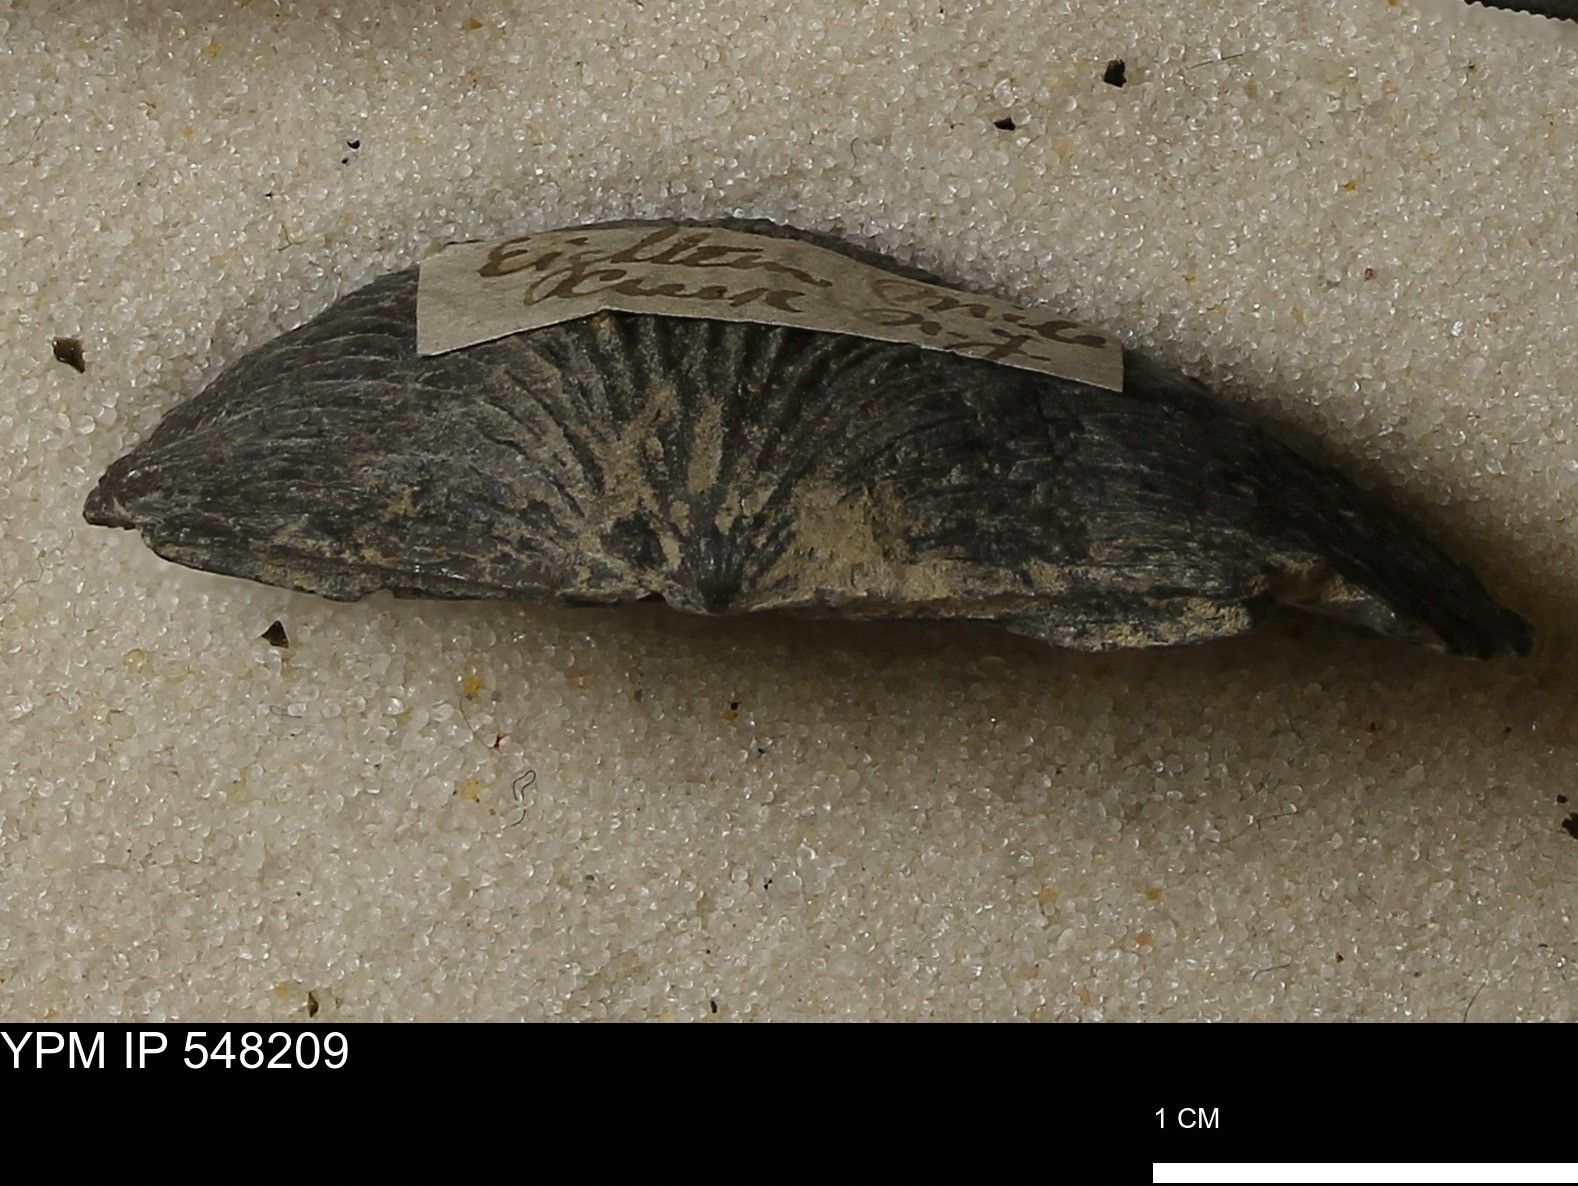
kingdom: Animalia
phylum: Brachiopoda
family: Stropheodontidae
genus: Strophodonta
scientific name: Strophodonta Strophomena demissa
